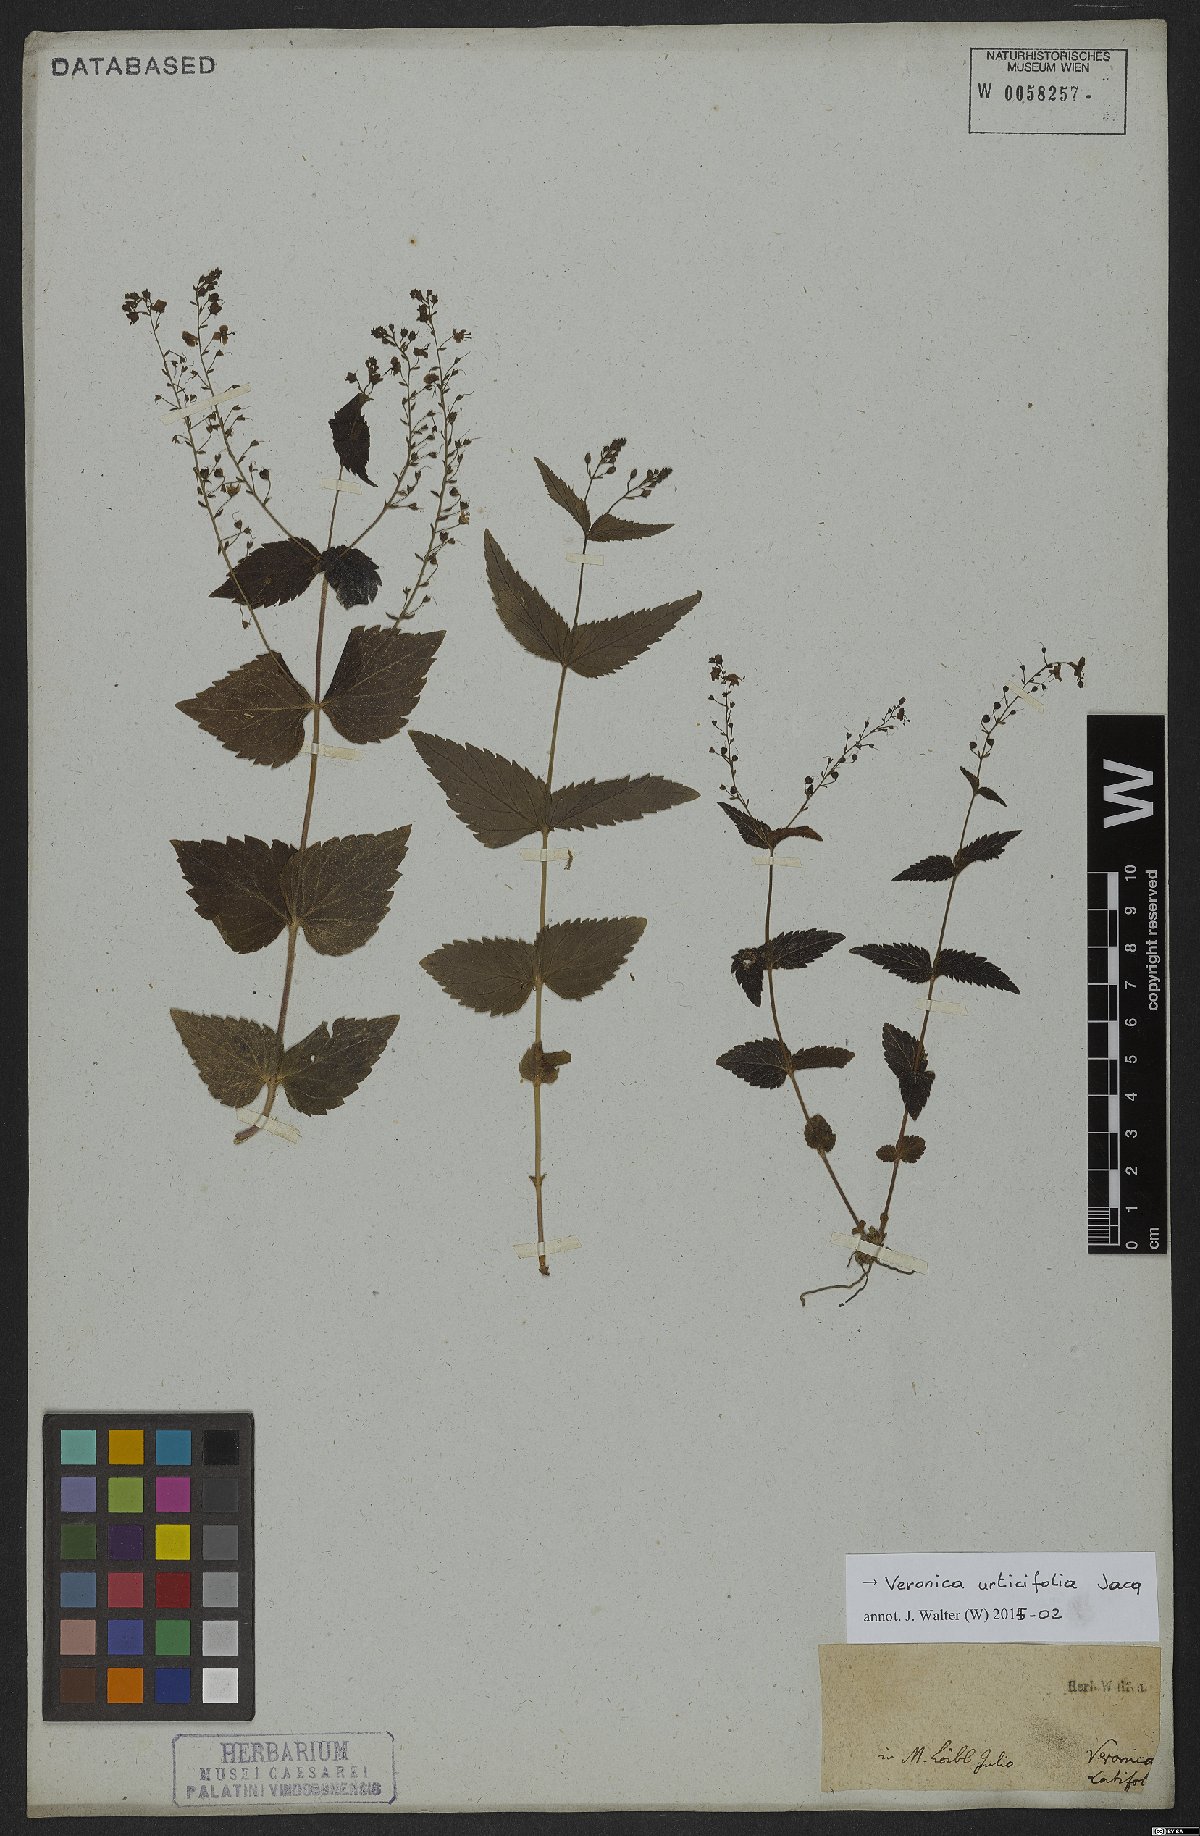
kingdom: Plantae
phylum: Tracheophyta
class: Magnoliopsida
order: Lamiales
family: Plantaginaceae
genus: Veronica
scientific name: Veronica urticifolia
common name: Nettle-leaf speedwell
